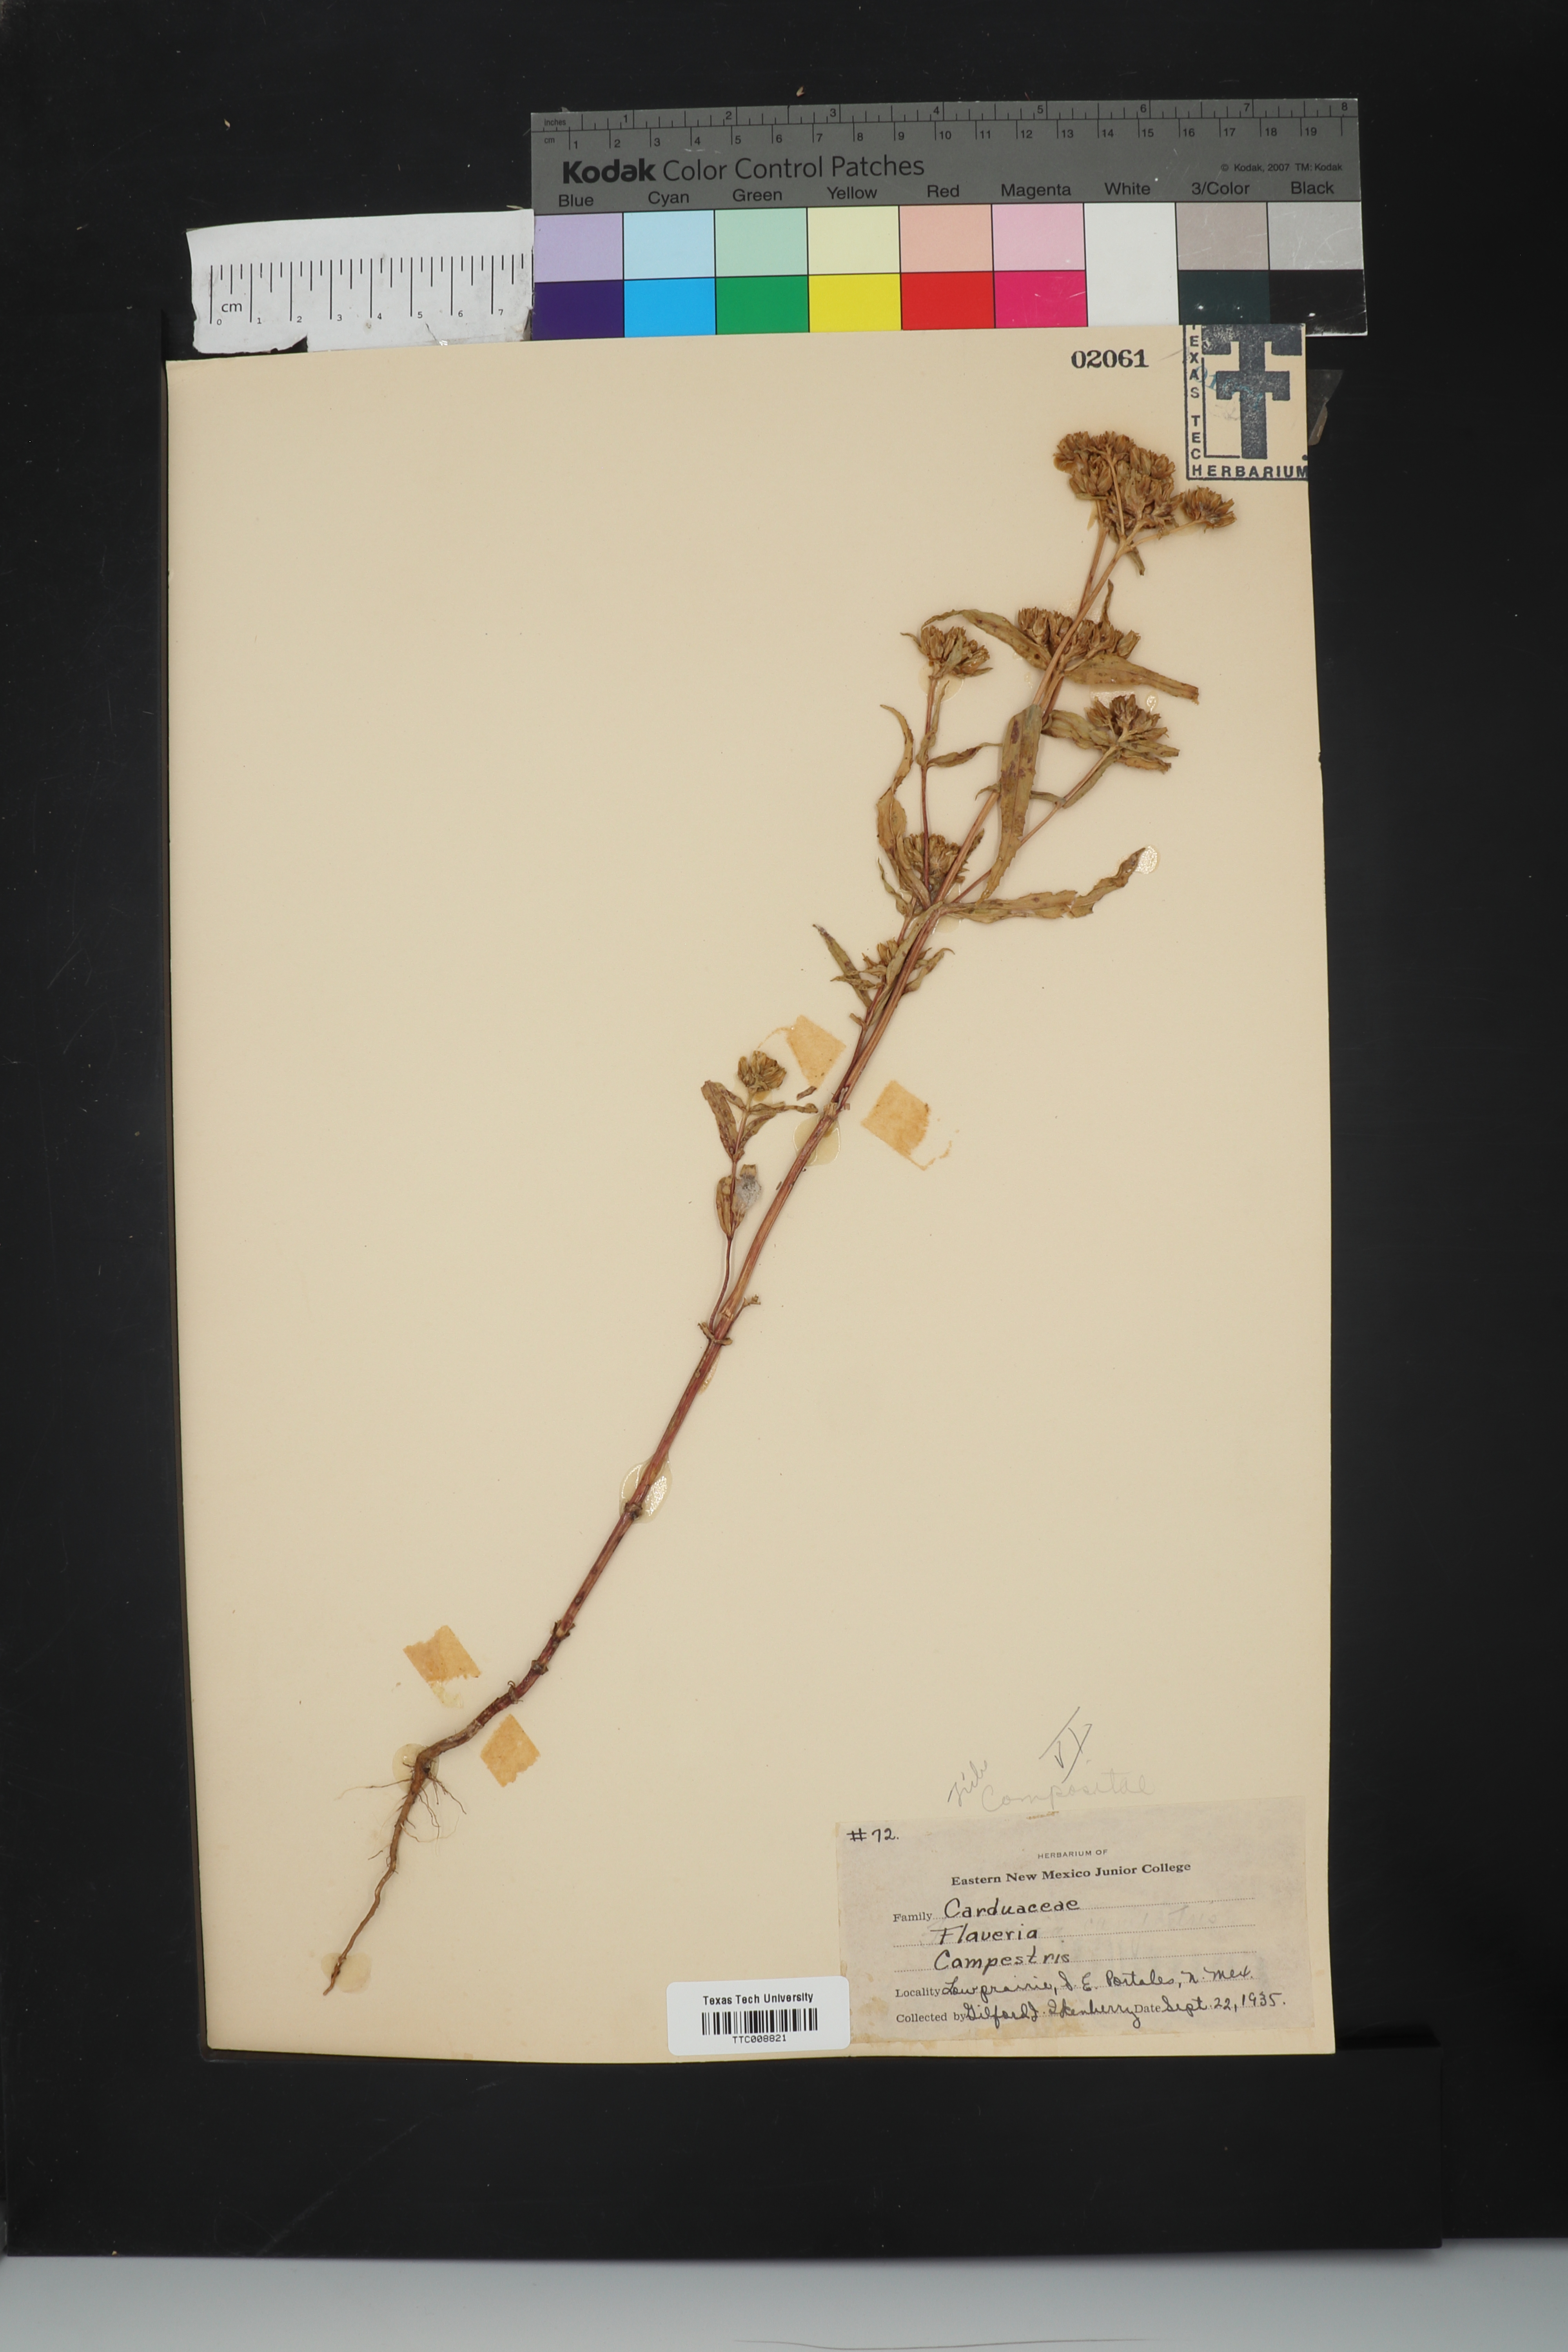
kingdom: Plantae
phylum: Tracheophyta
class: Magnoliopsida
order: Asterales
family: Asteraceae
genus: Flaveria
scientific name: Flaveria campestris
